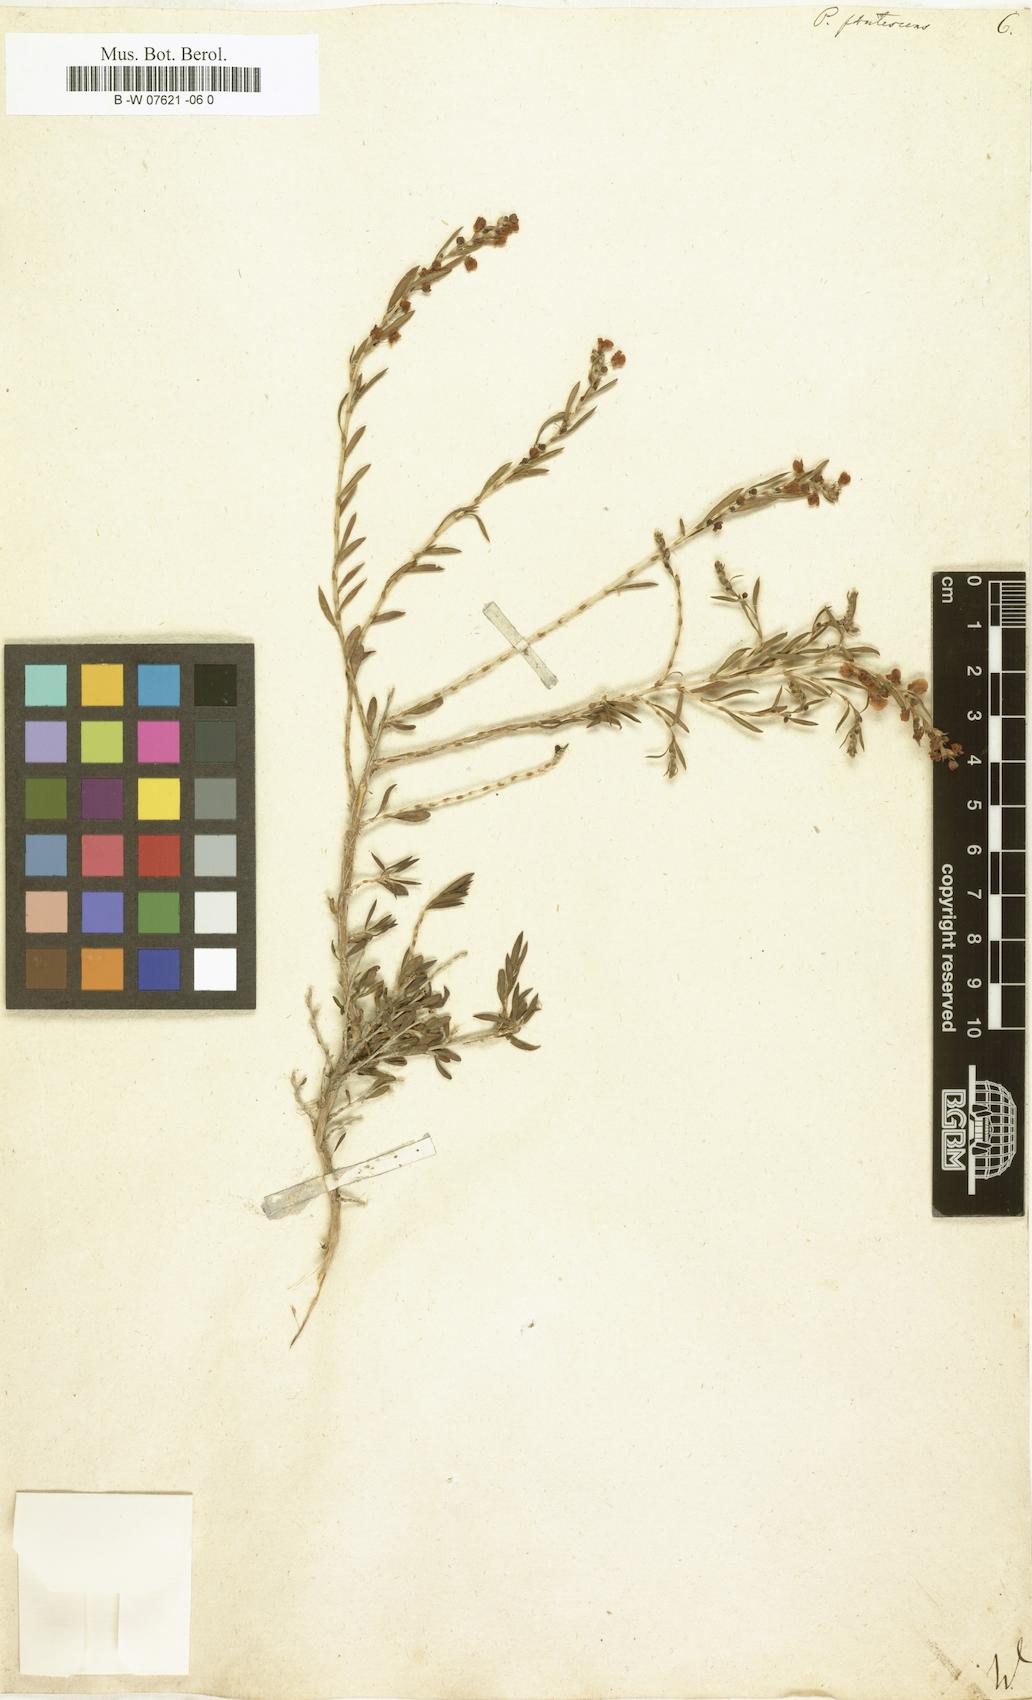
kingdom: Plantae
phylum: Tracheophyta
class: Magnoliopsida
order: Caryophyllales
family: Polygonaceae
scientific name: Polygonaceae
